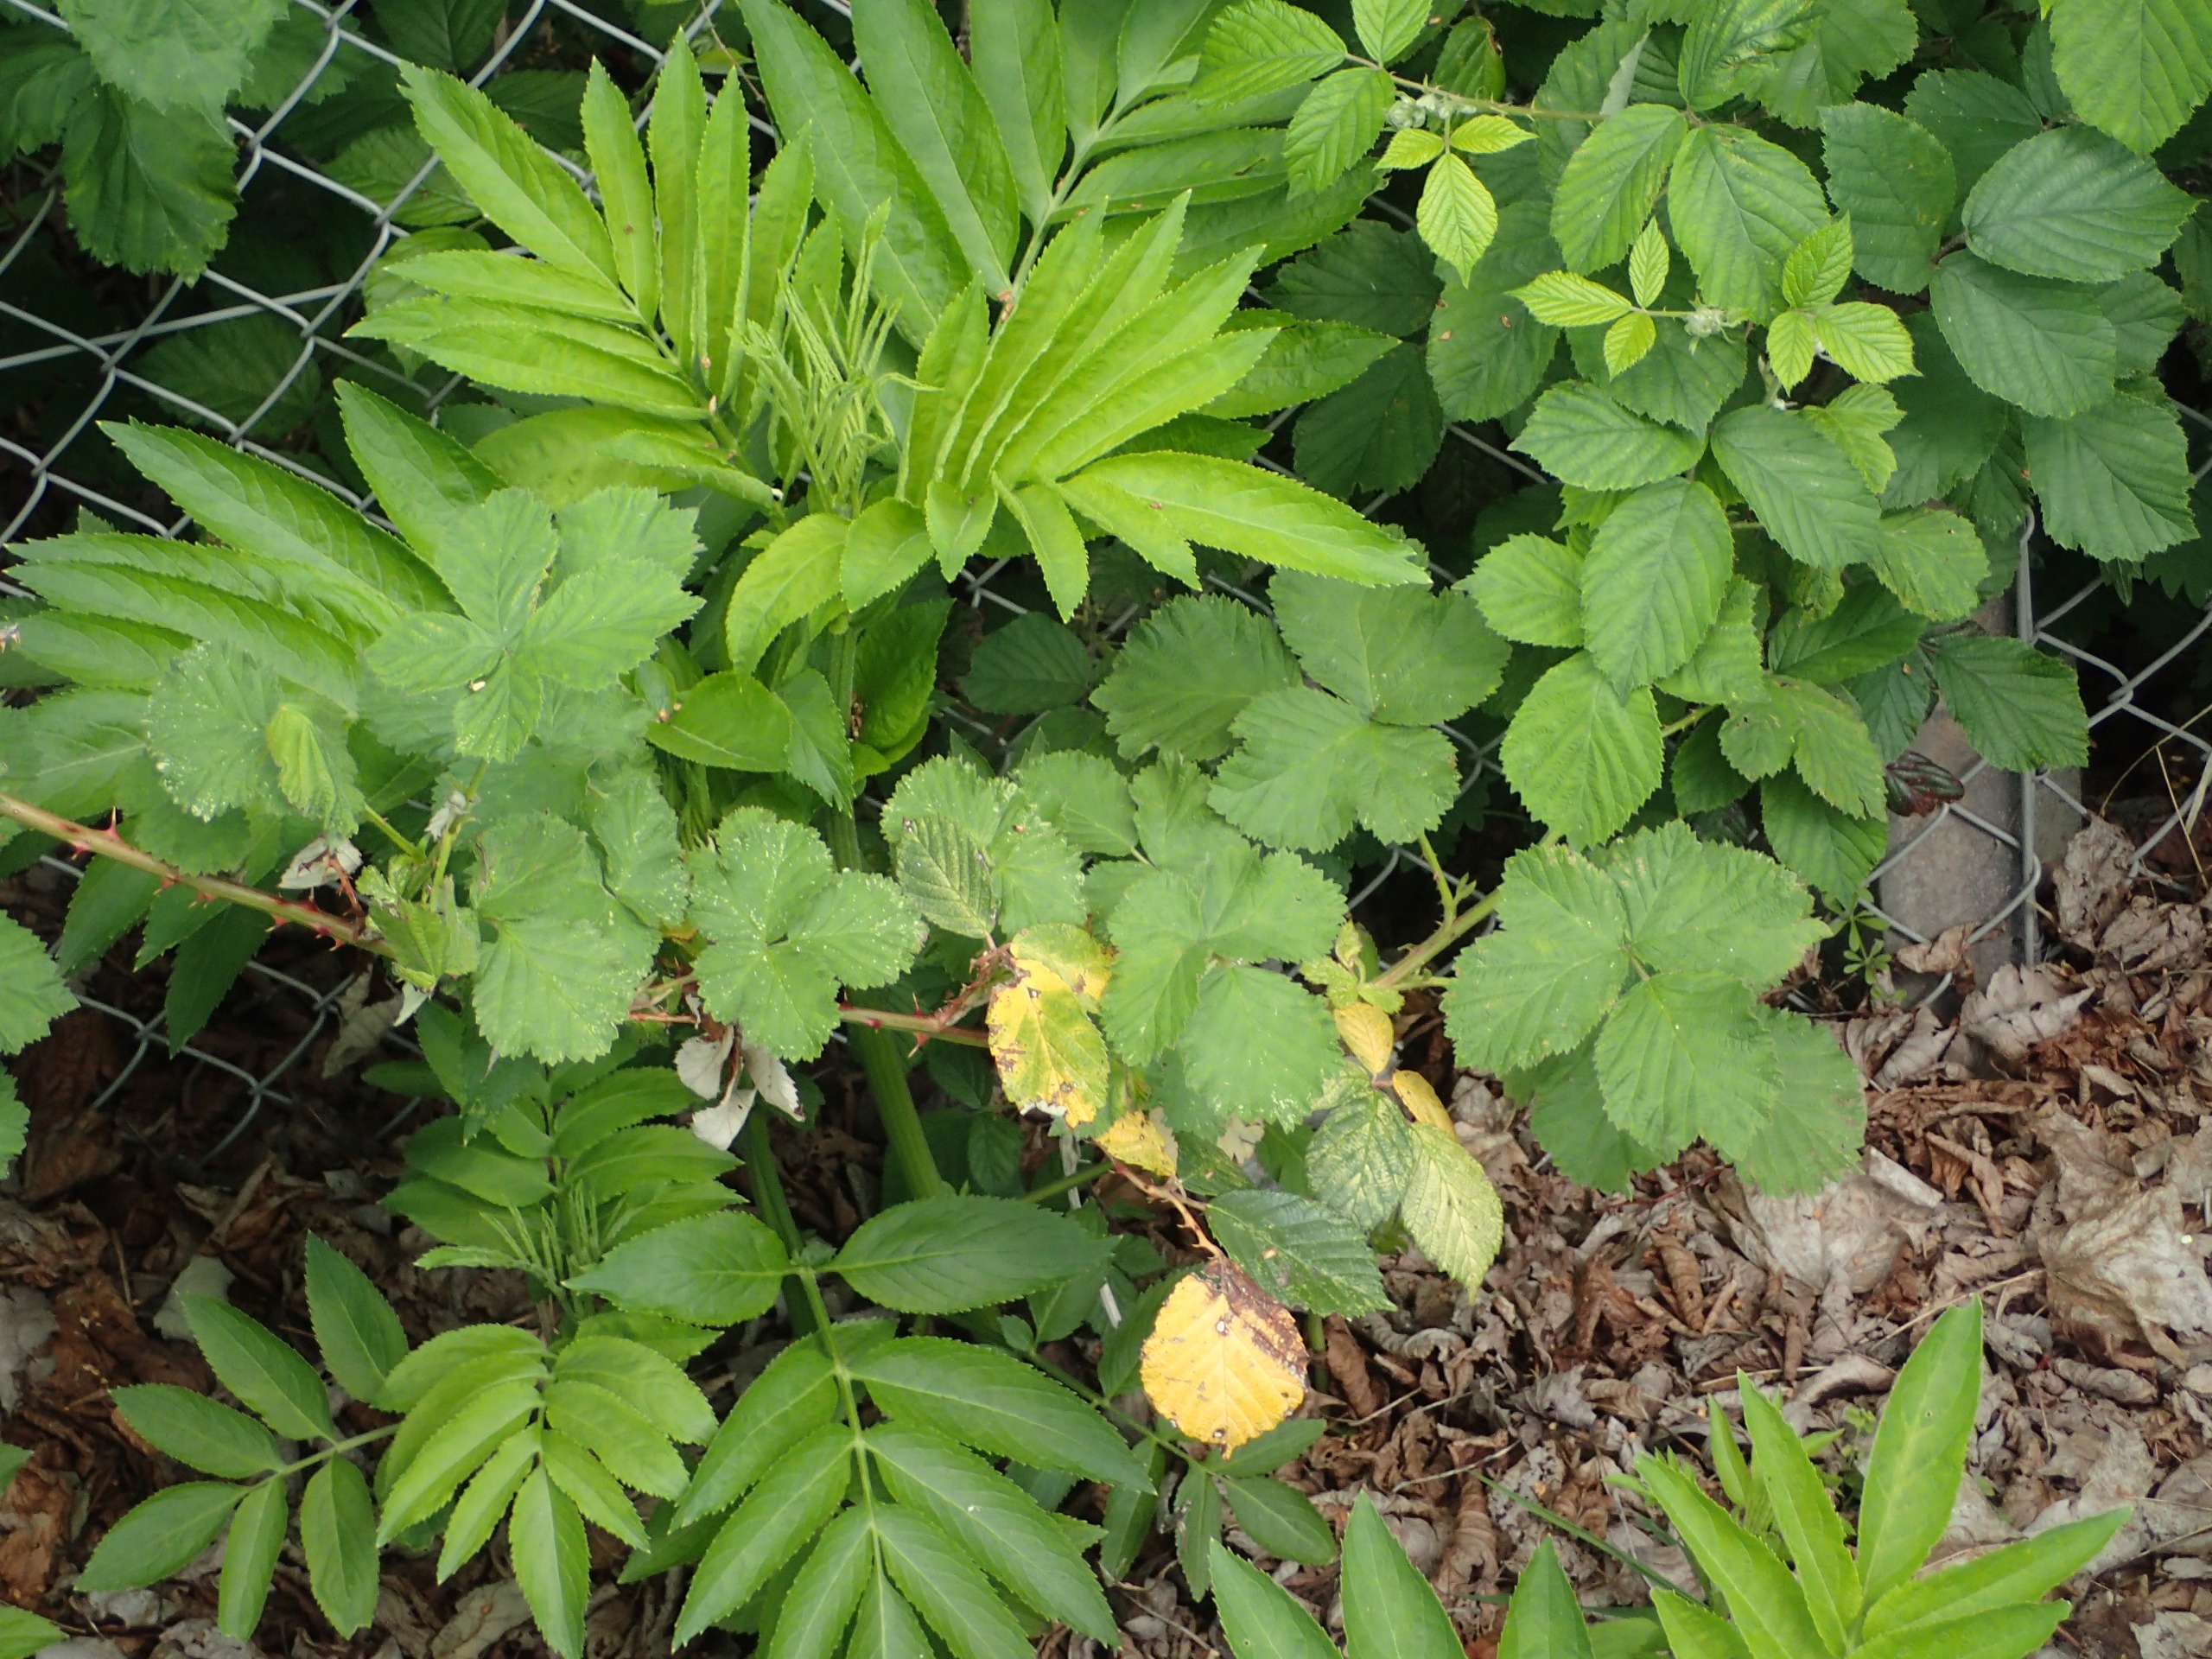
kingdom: Plantae
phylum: Tracheophyta
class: Magnoliopsida
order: Dipsacales
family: Viburnaceae
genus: Sambucus
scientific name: Sambucus ebulus
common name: Sommer-hyld
